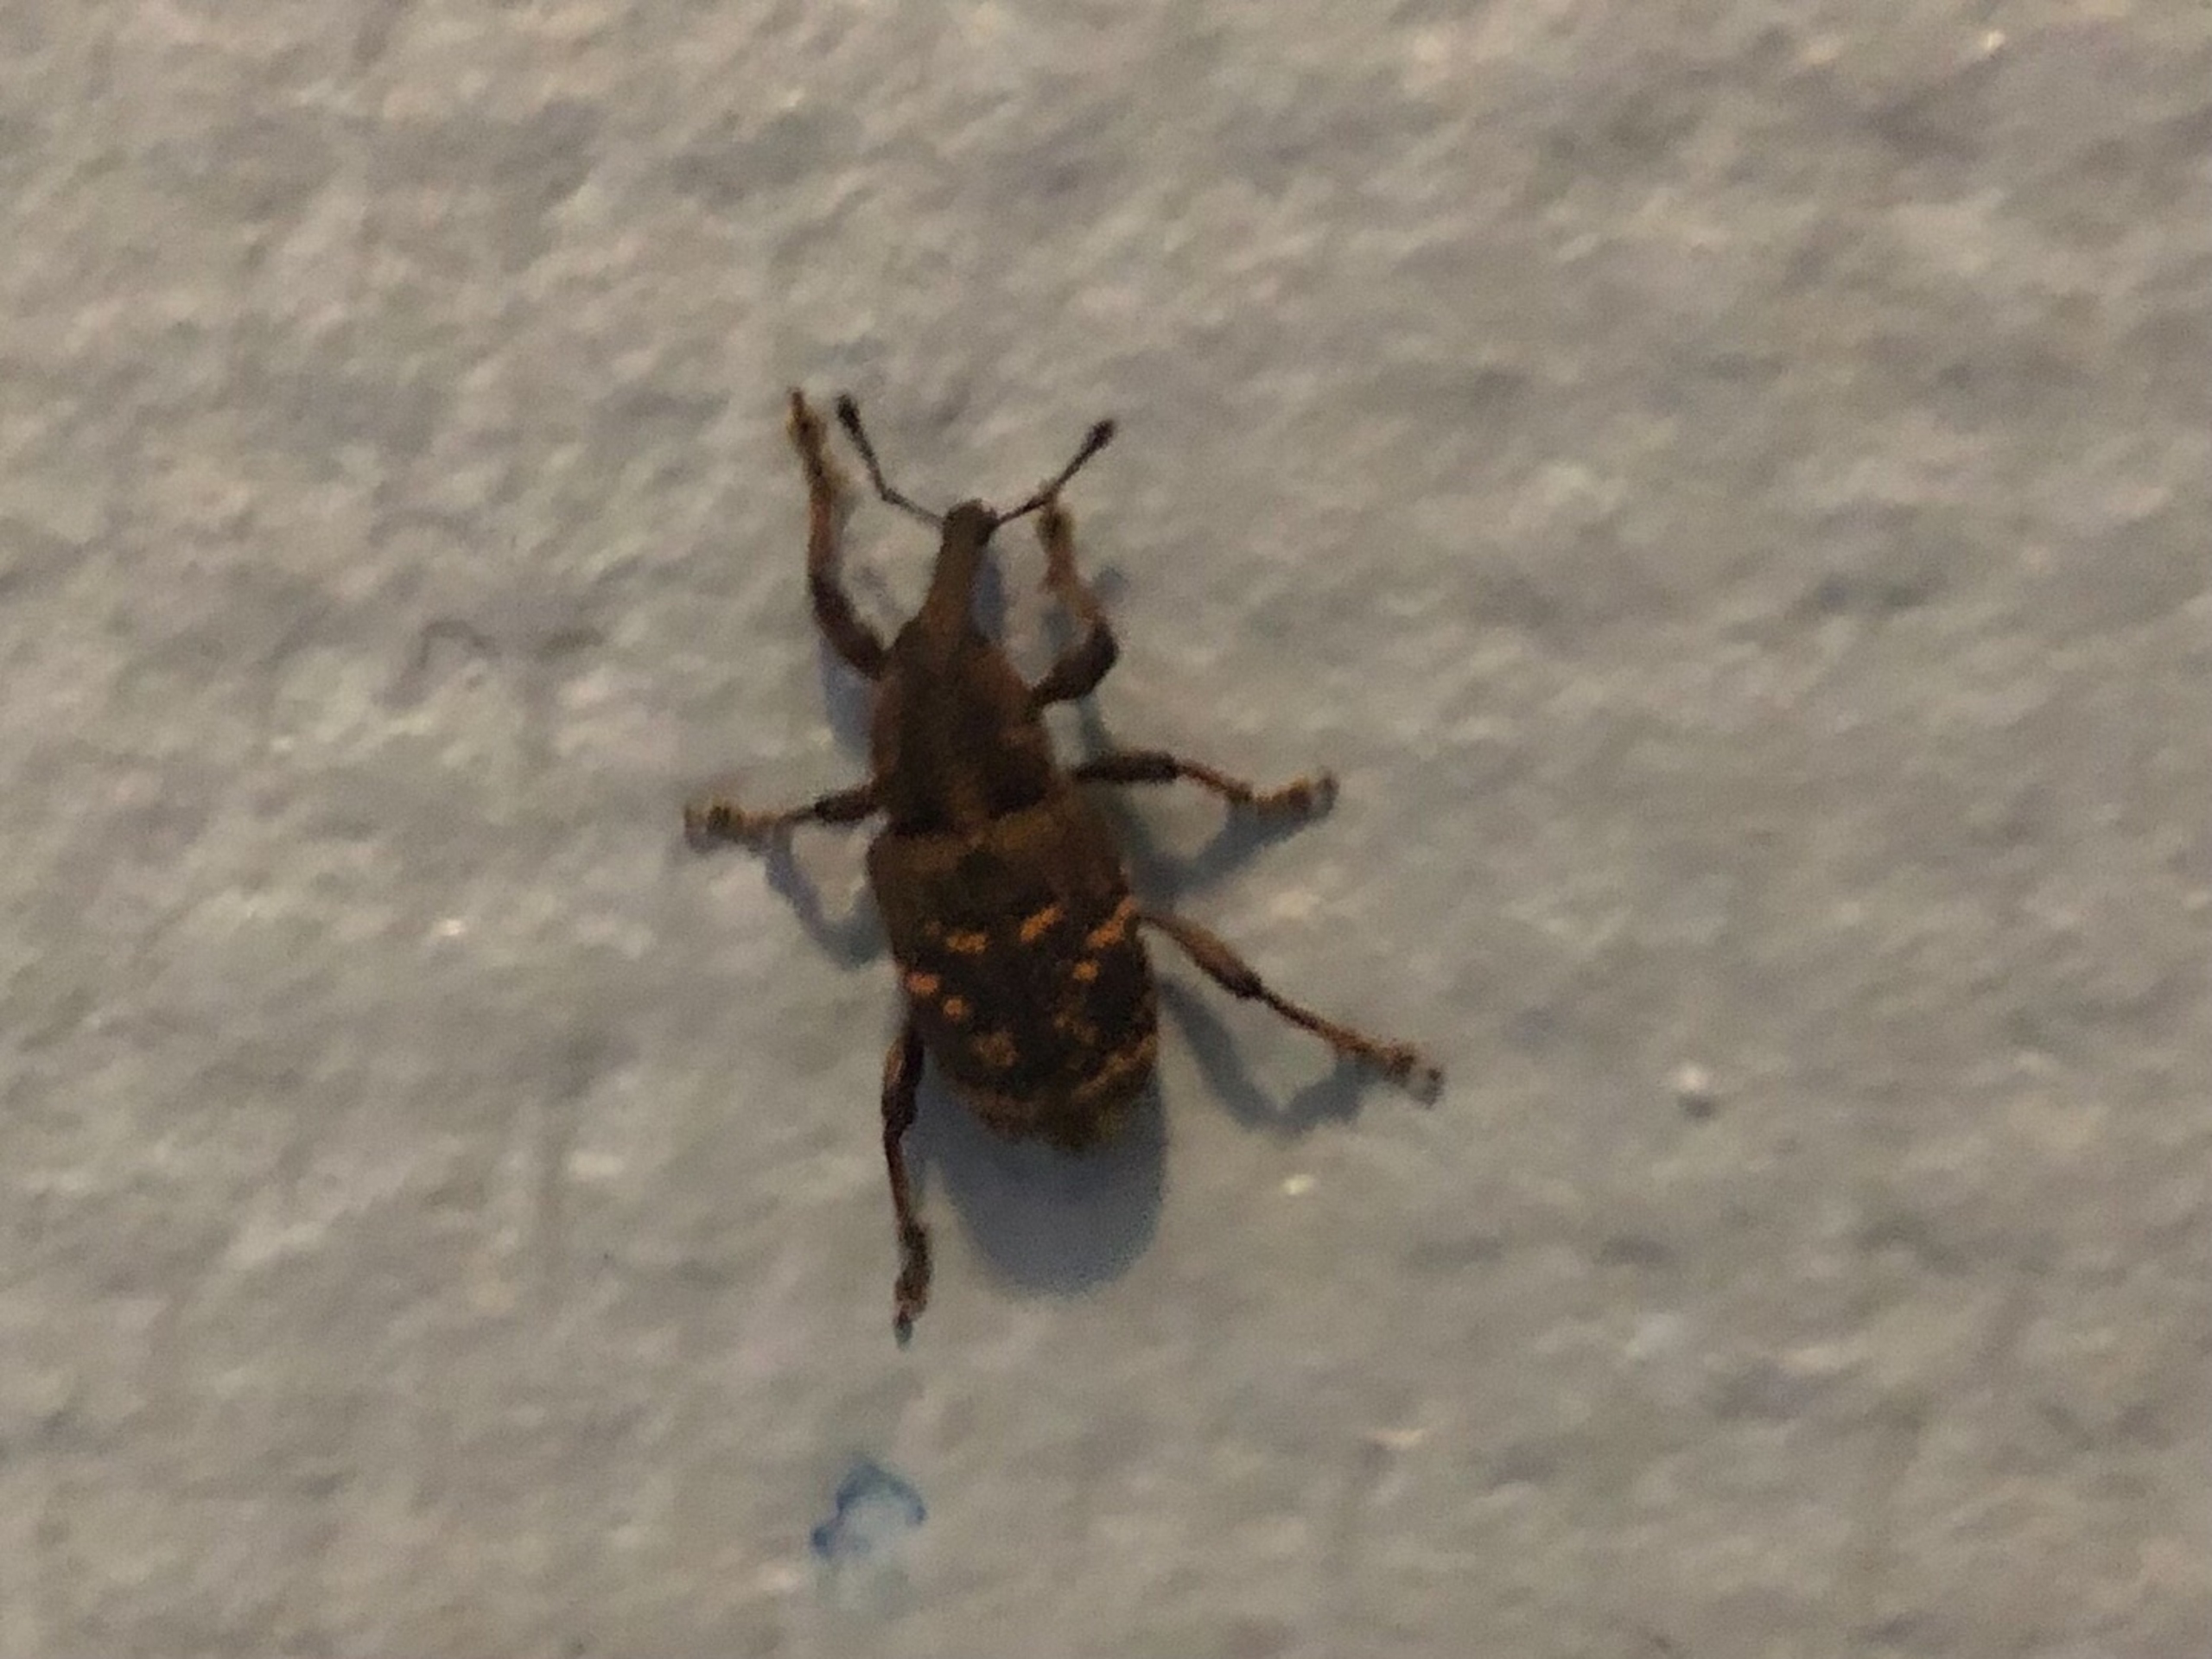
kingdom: Animalia
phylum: Arthropoda
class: Insecta
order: Coleoptera
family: Curculionidae
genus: Hylobius
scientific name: Hylobius abietis
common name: Stor nåletræsnudebille
